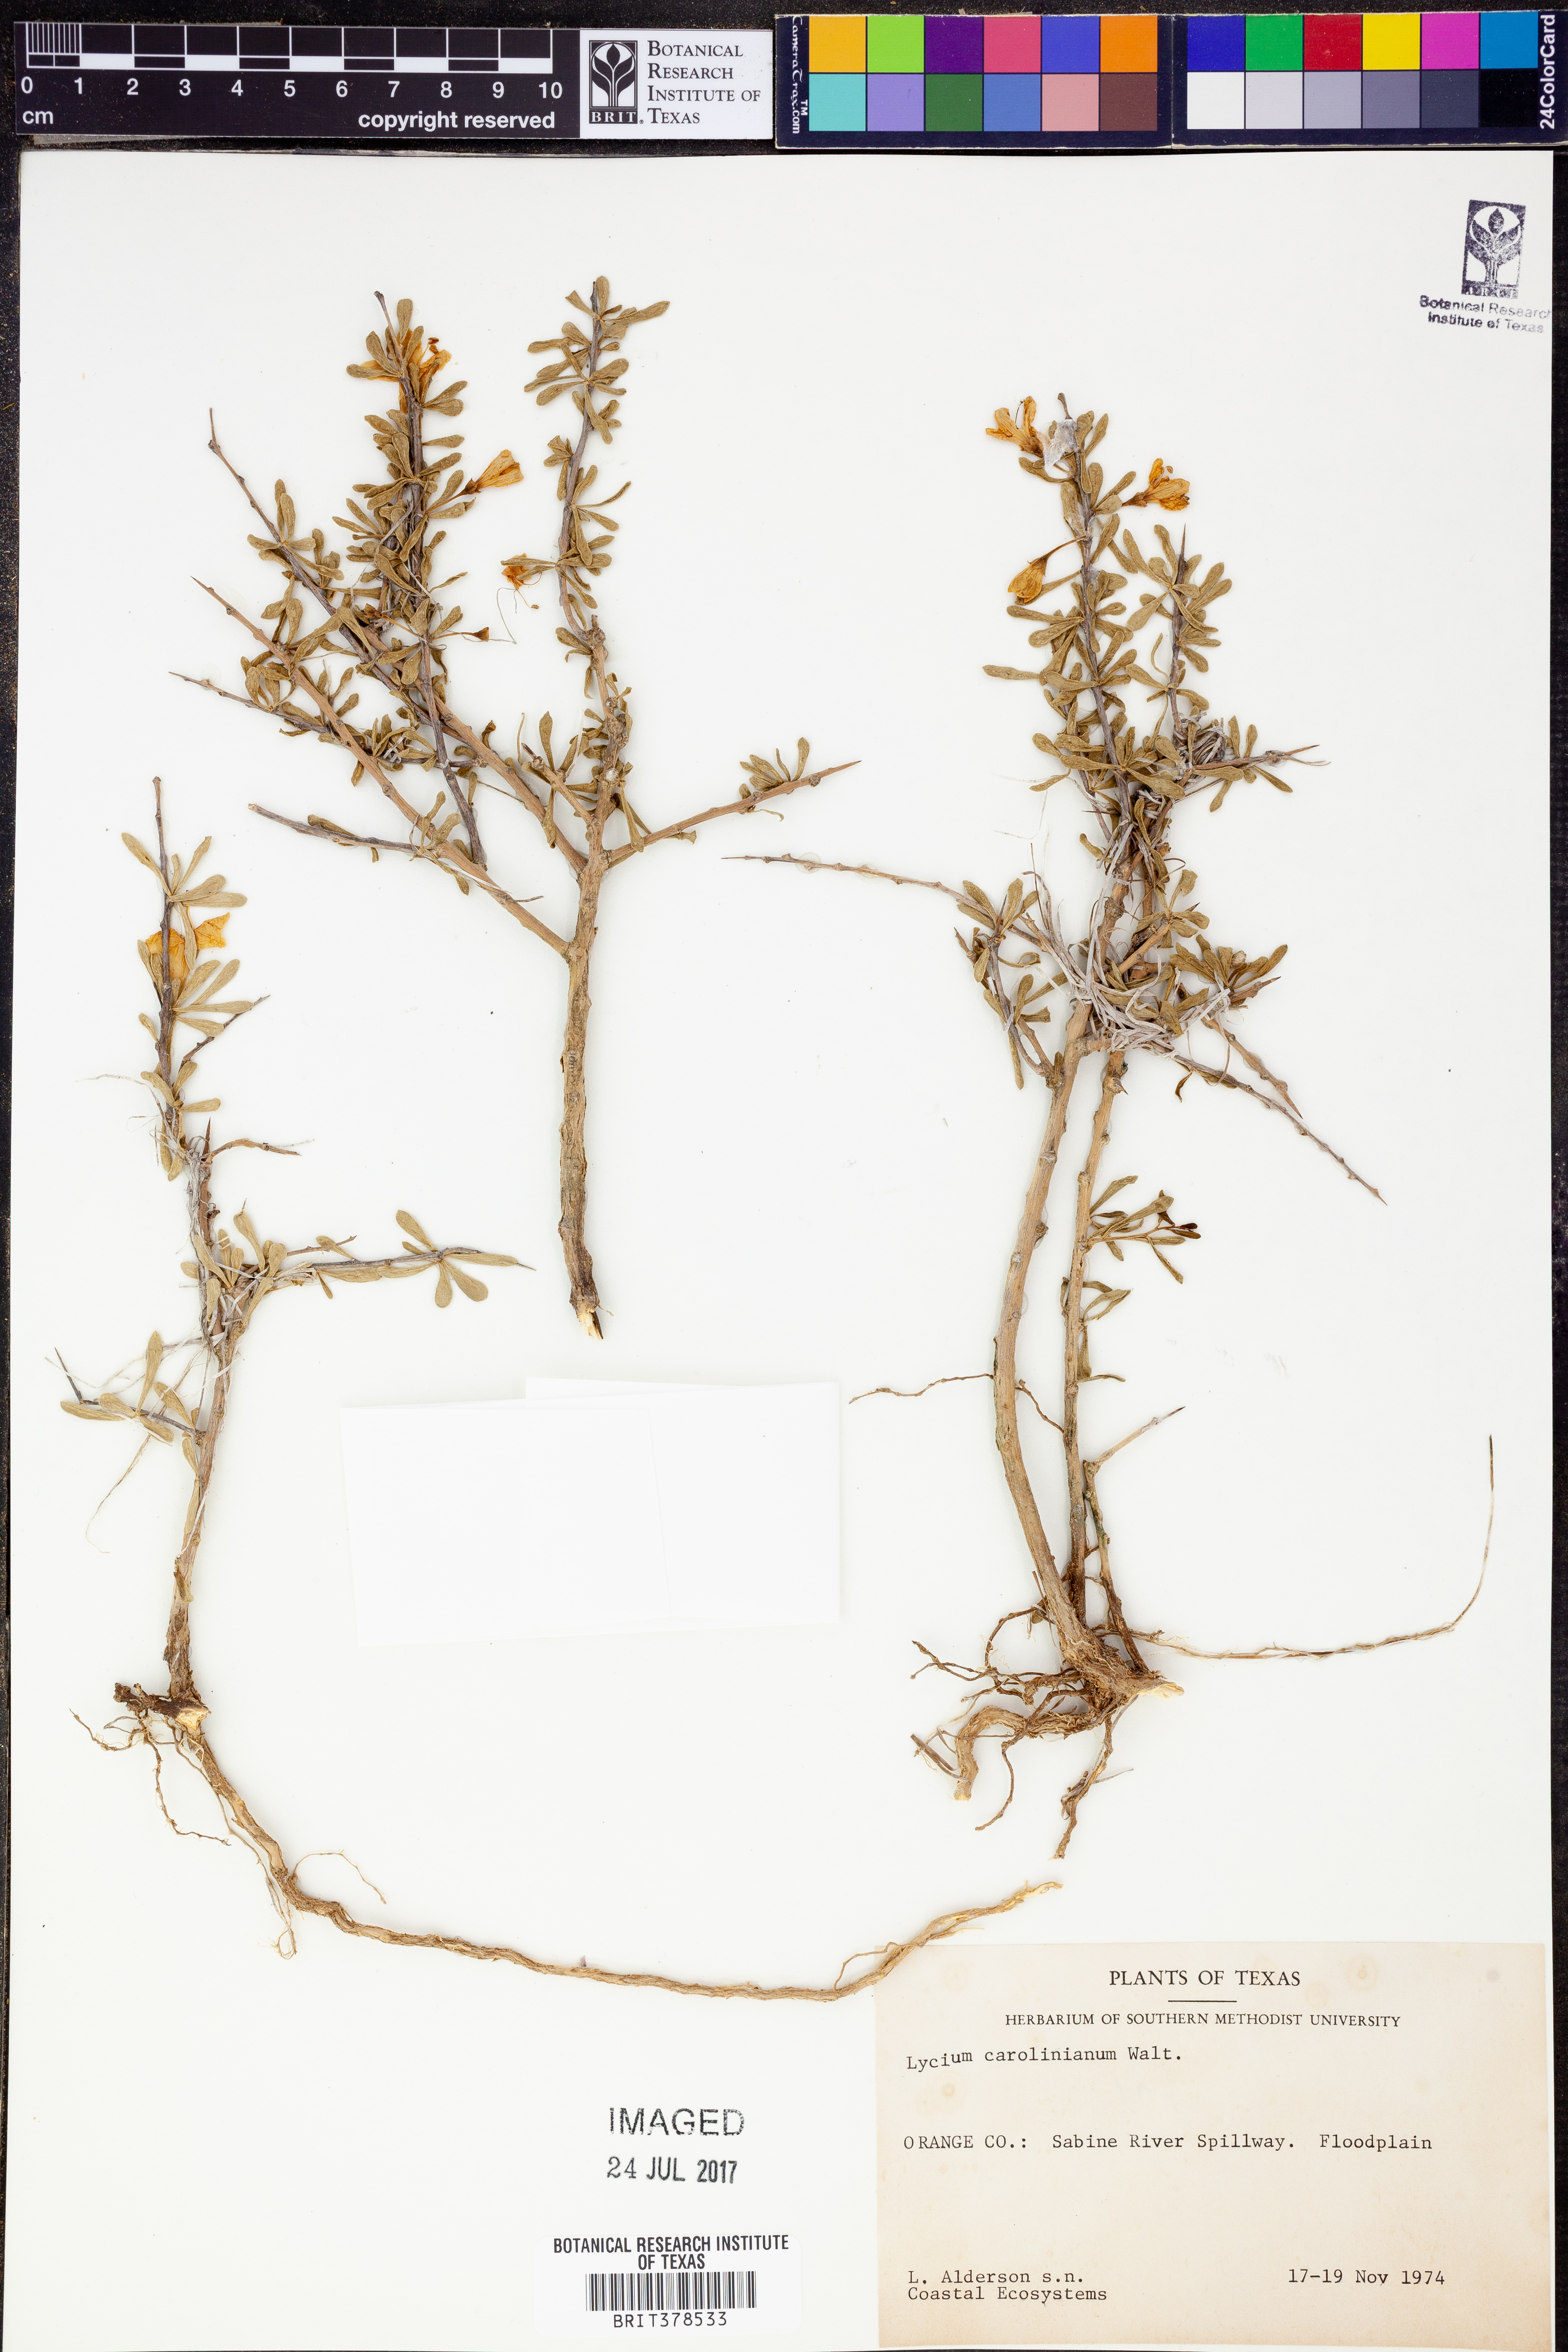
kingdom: Plantae
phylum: Tracheophyta
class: Magnoliopsida
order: Solanales
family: Solanaceae
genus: Lycium
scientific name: Lycium carolinianum
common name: Christmasberry
